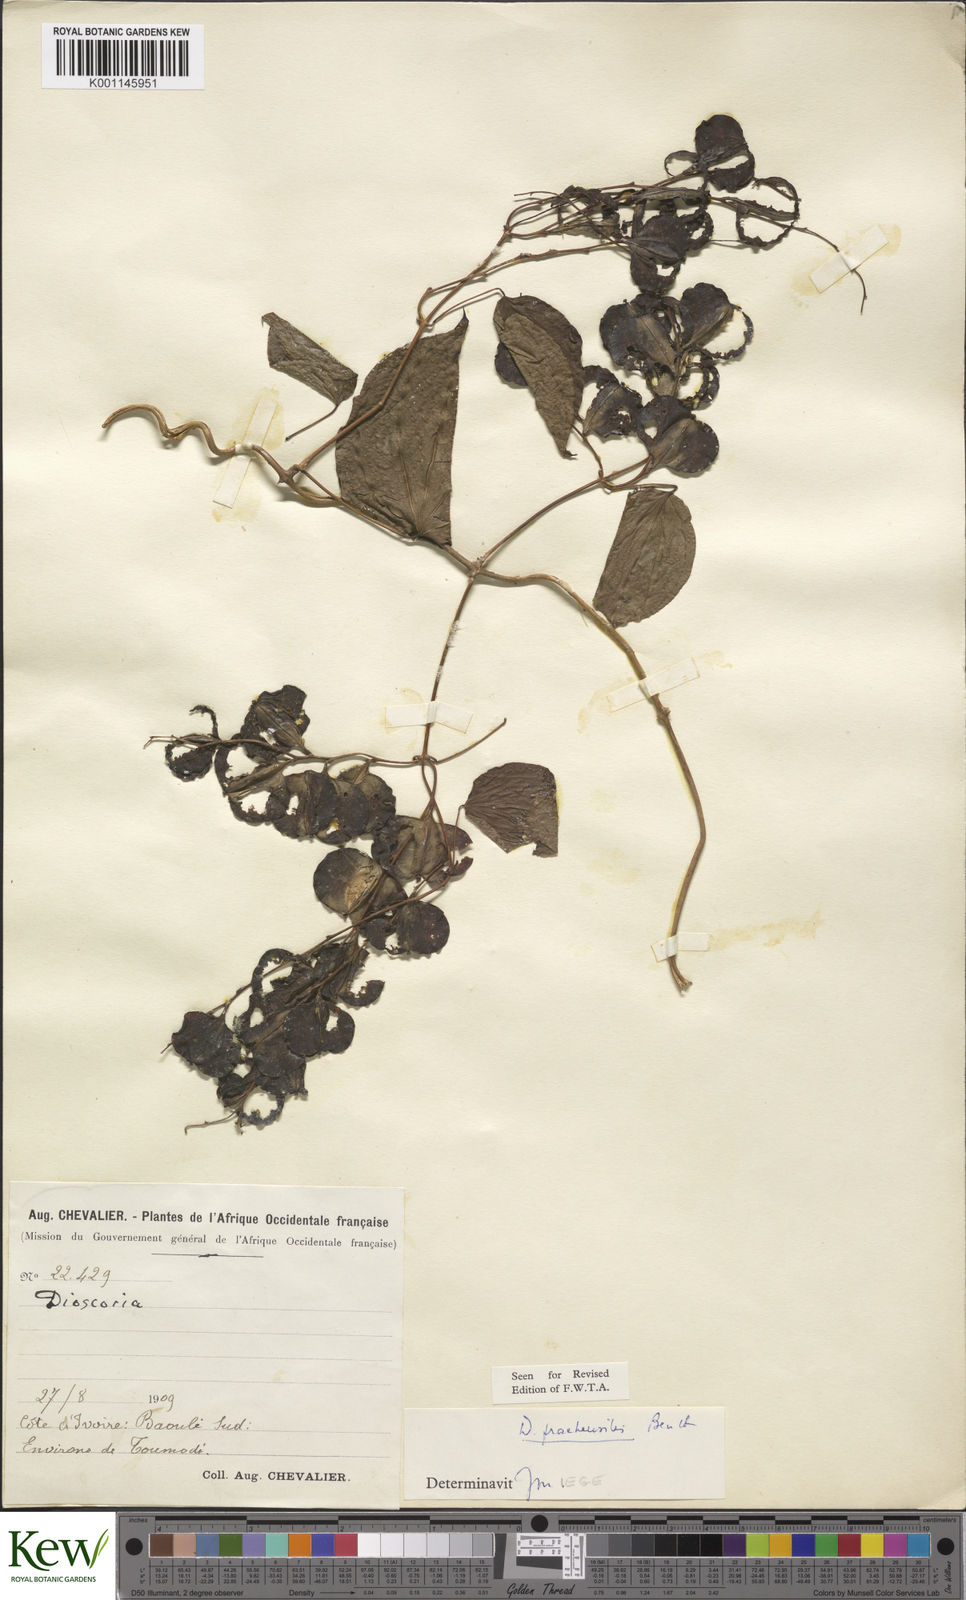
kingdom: Plantae
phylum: Tracheophyta
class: Liliopsida
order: Dioscoreales
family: Dioscoreaceae
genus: Dioscorea
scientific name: Dioscorea praehensilis
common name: Bush yam
